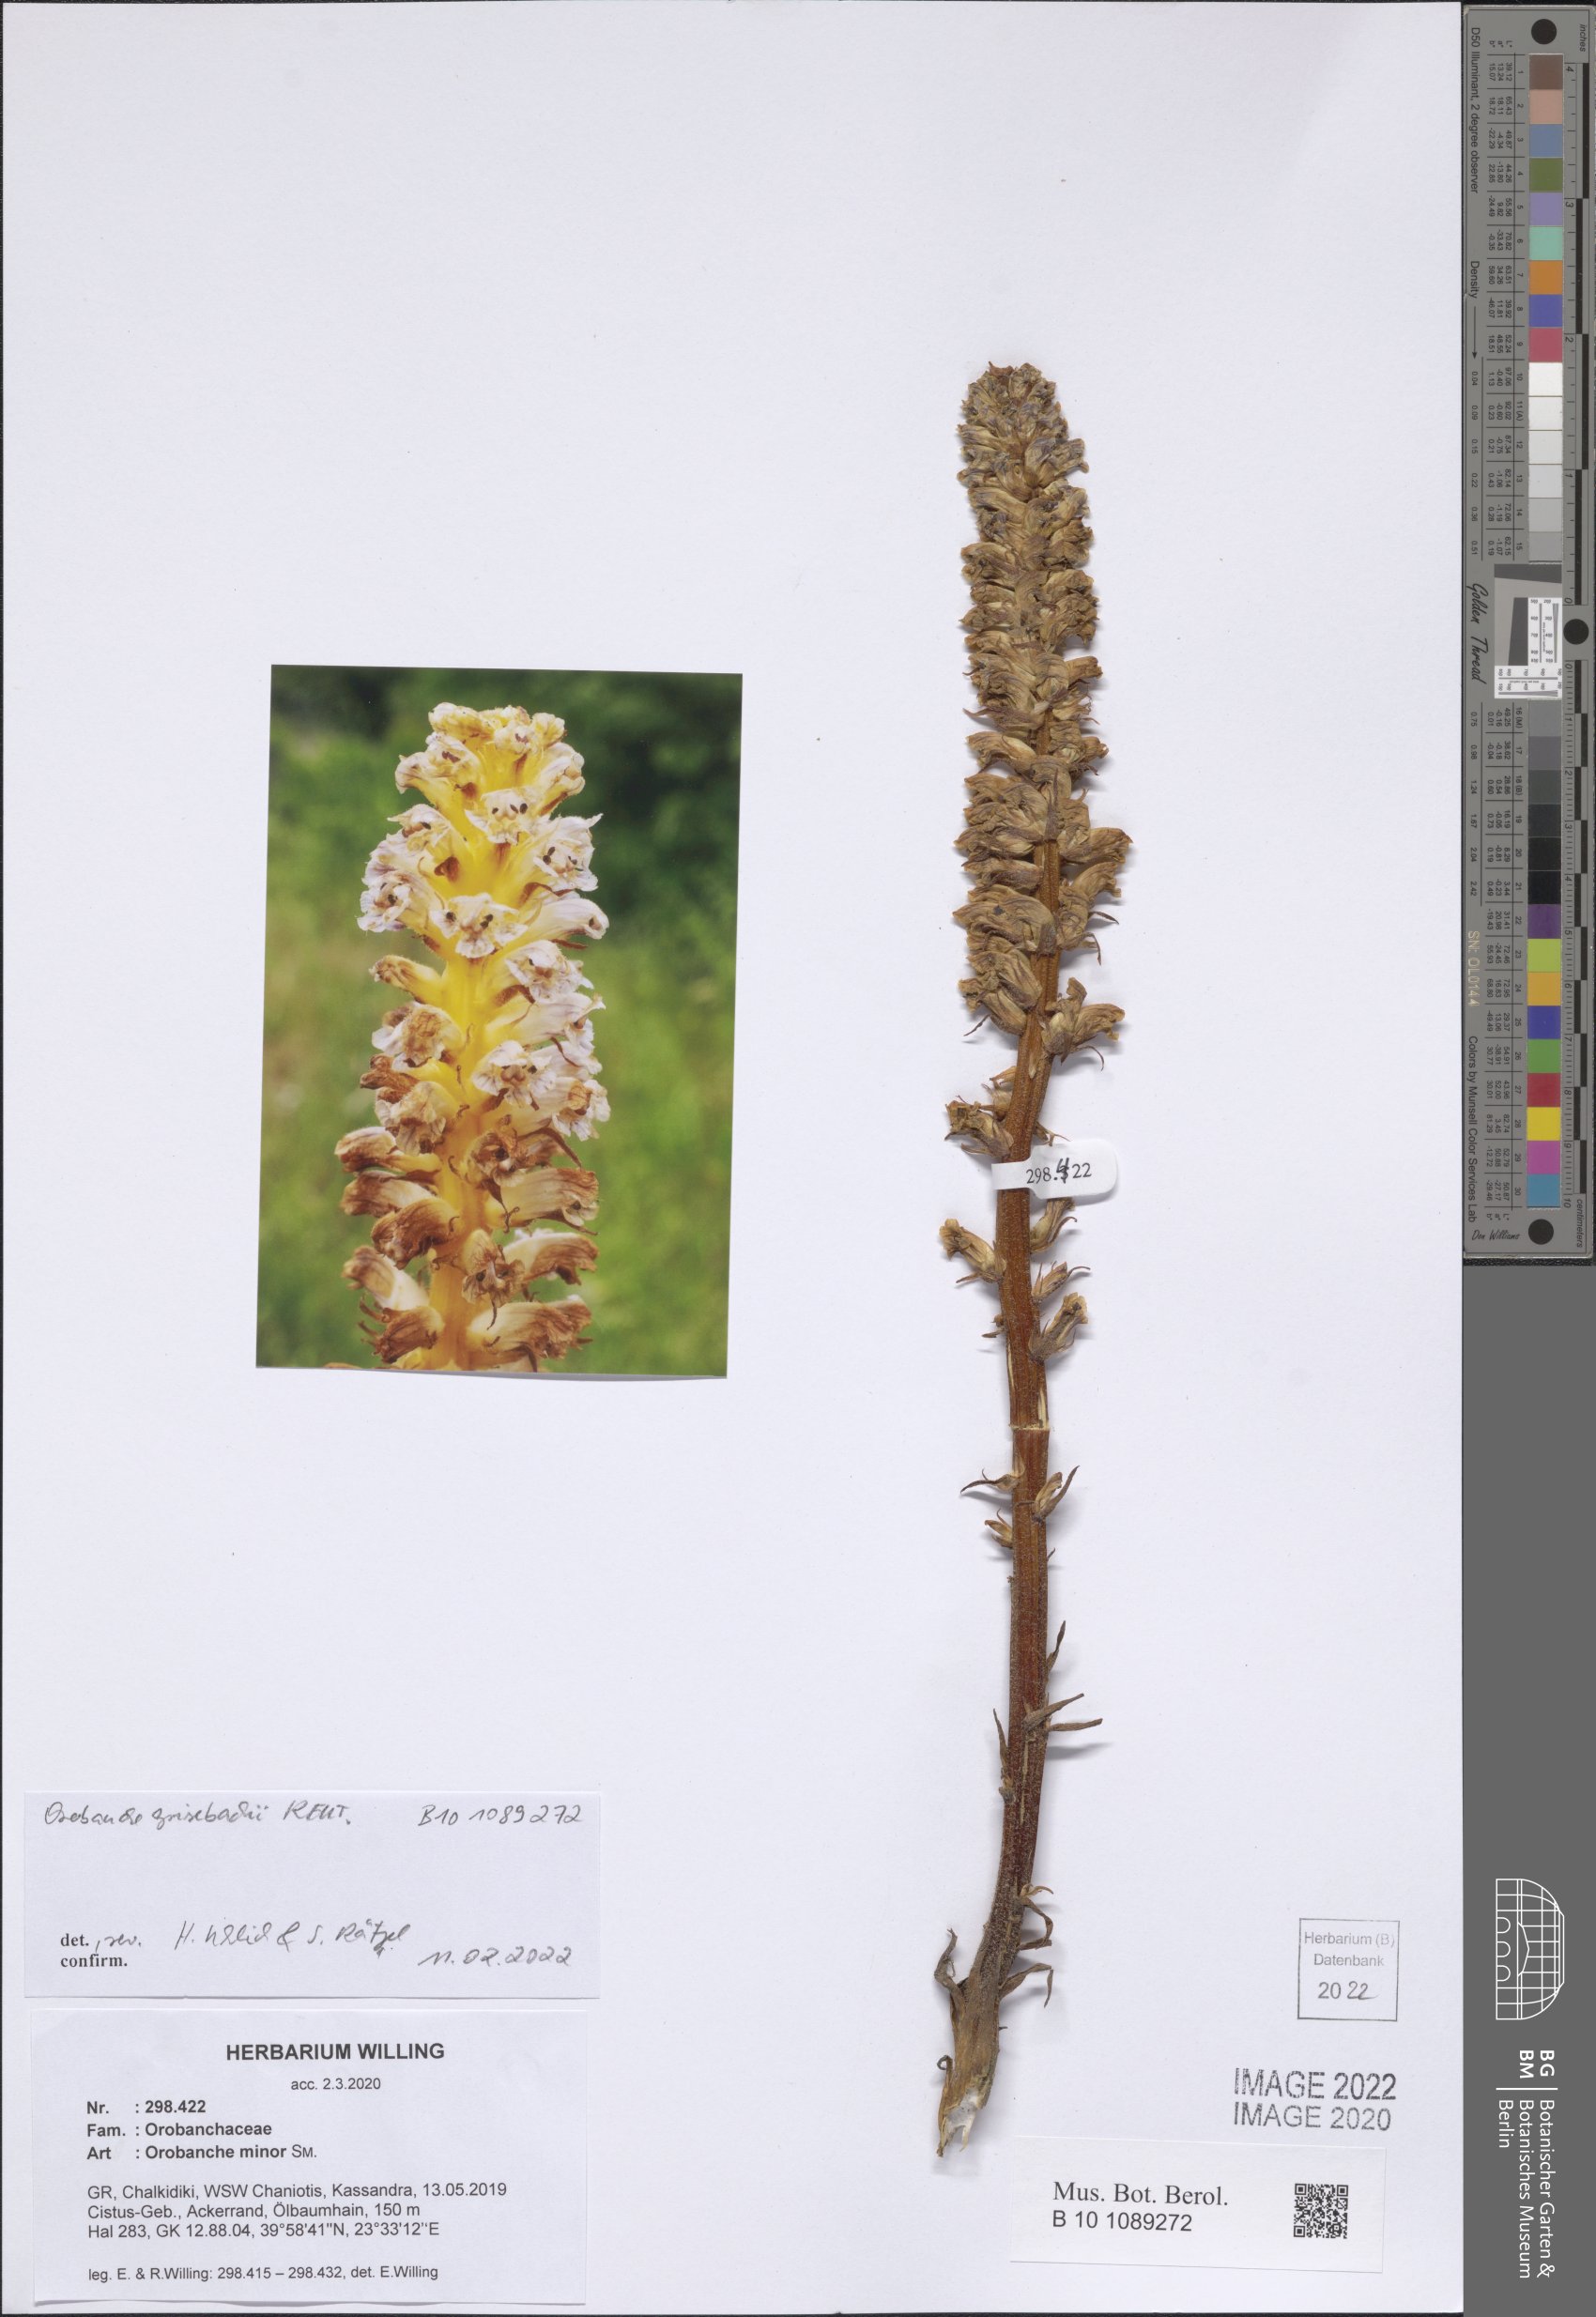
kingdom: Plantae
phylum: Tracheophyta
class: Magnoliopsida
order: Lamiales
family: Orobanchaceae
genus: Orobanche
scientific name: Orobanche grisebachii
